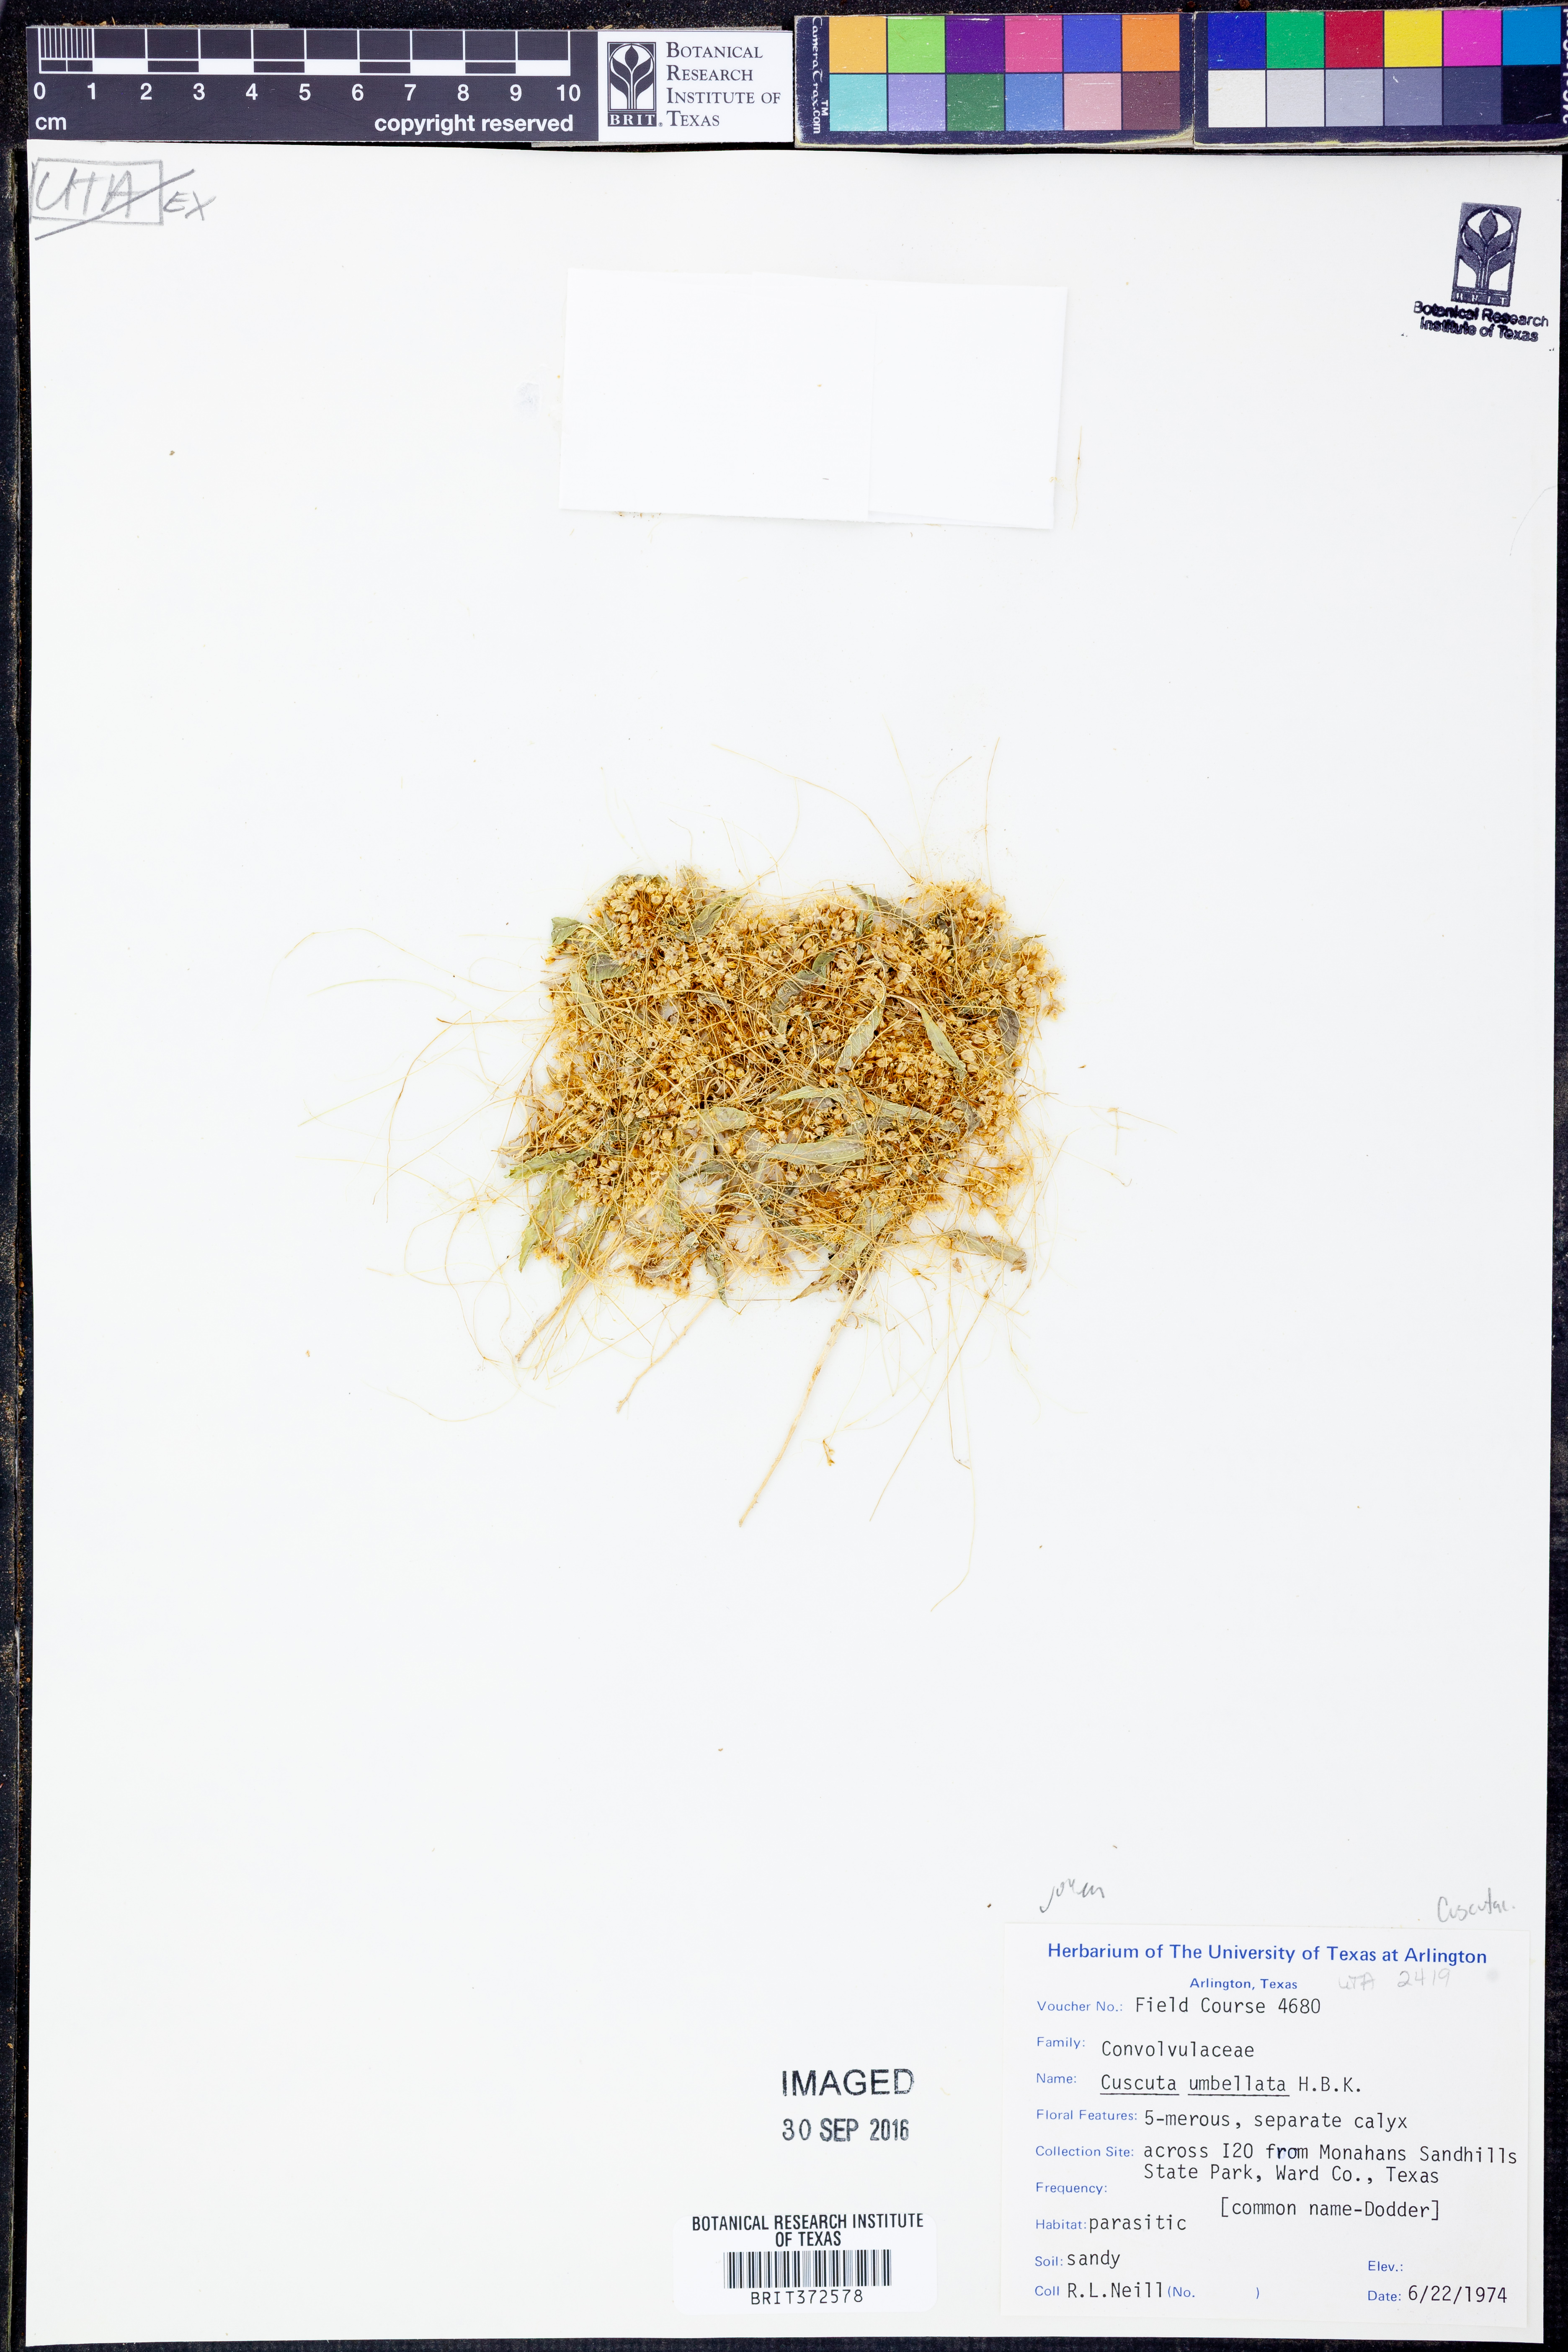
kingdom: Plantae
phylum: Tracheophyta
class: Magnoliopsida
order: Solanales
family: Convolvulaceae
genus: Cuscuta
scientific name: Cuscuta umbellata
